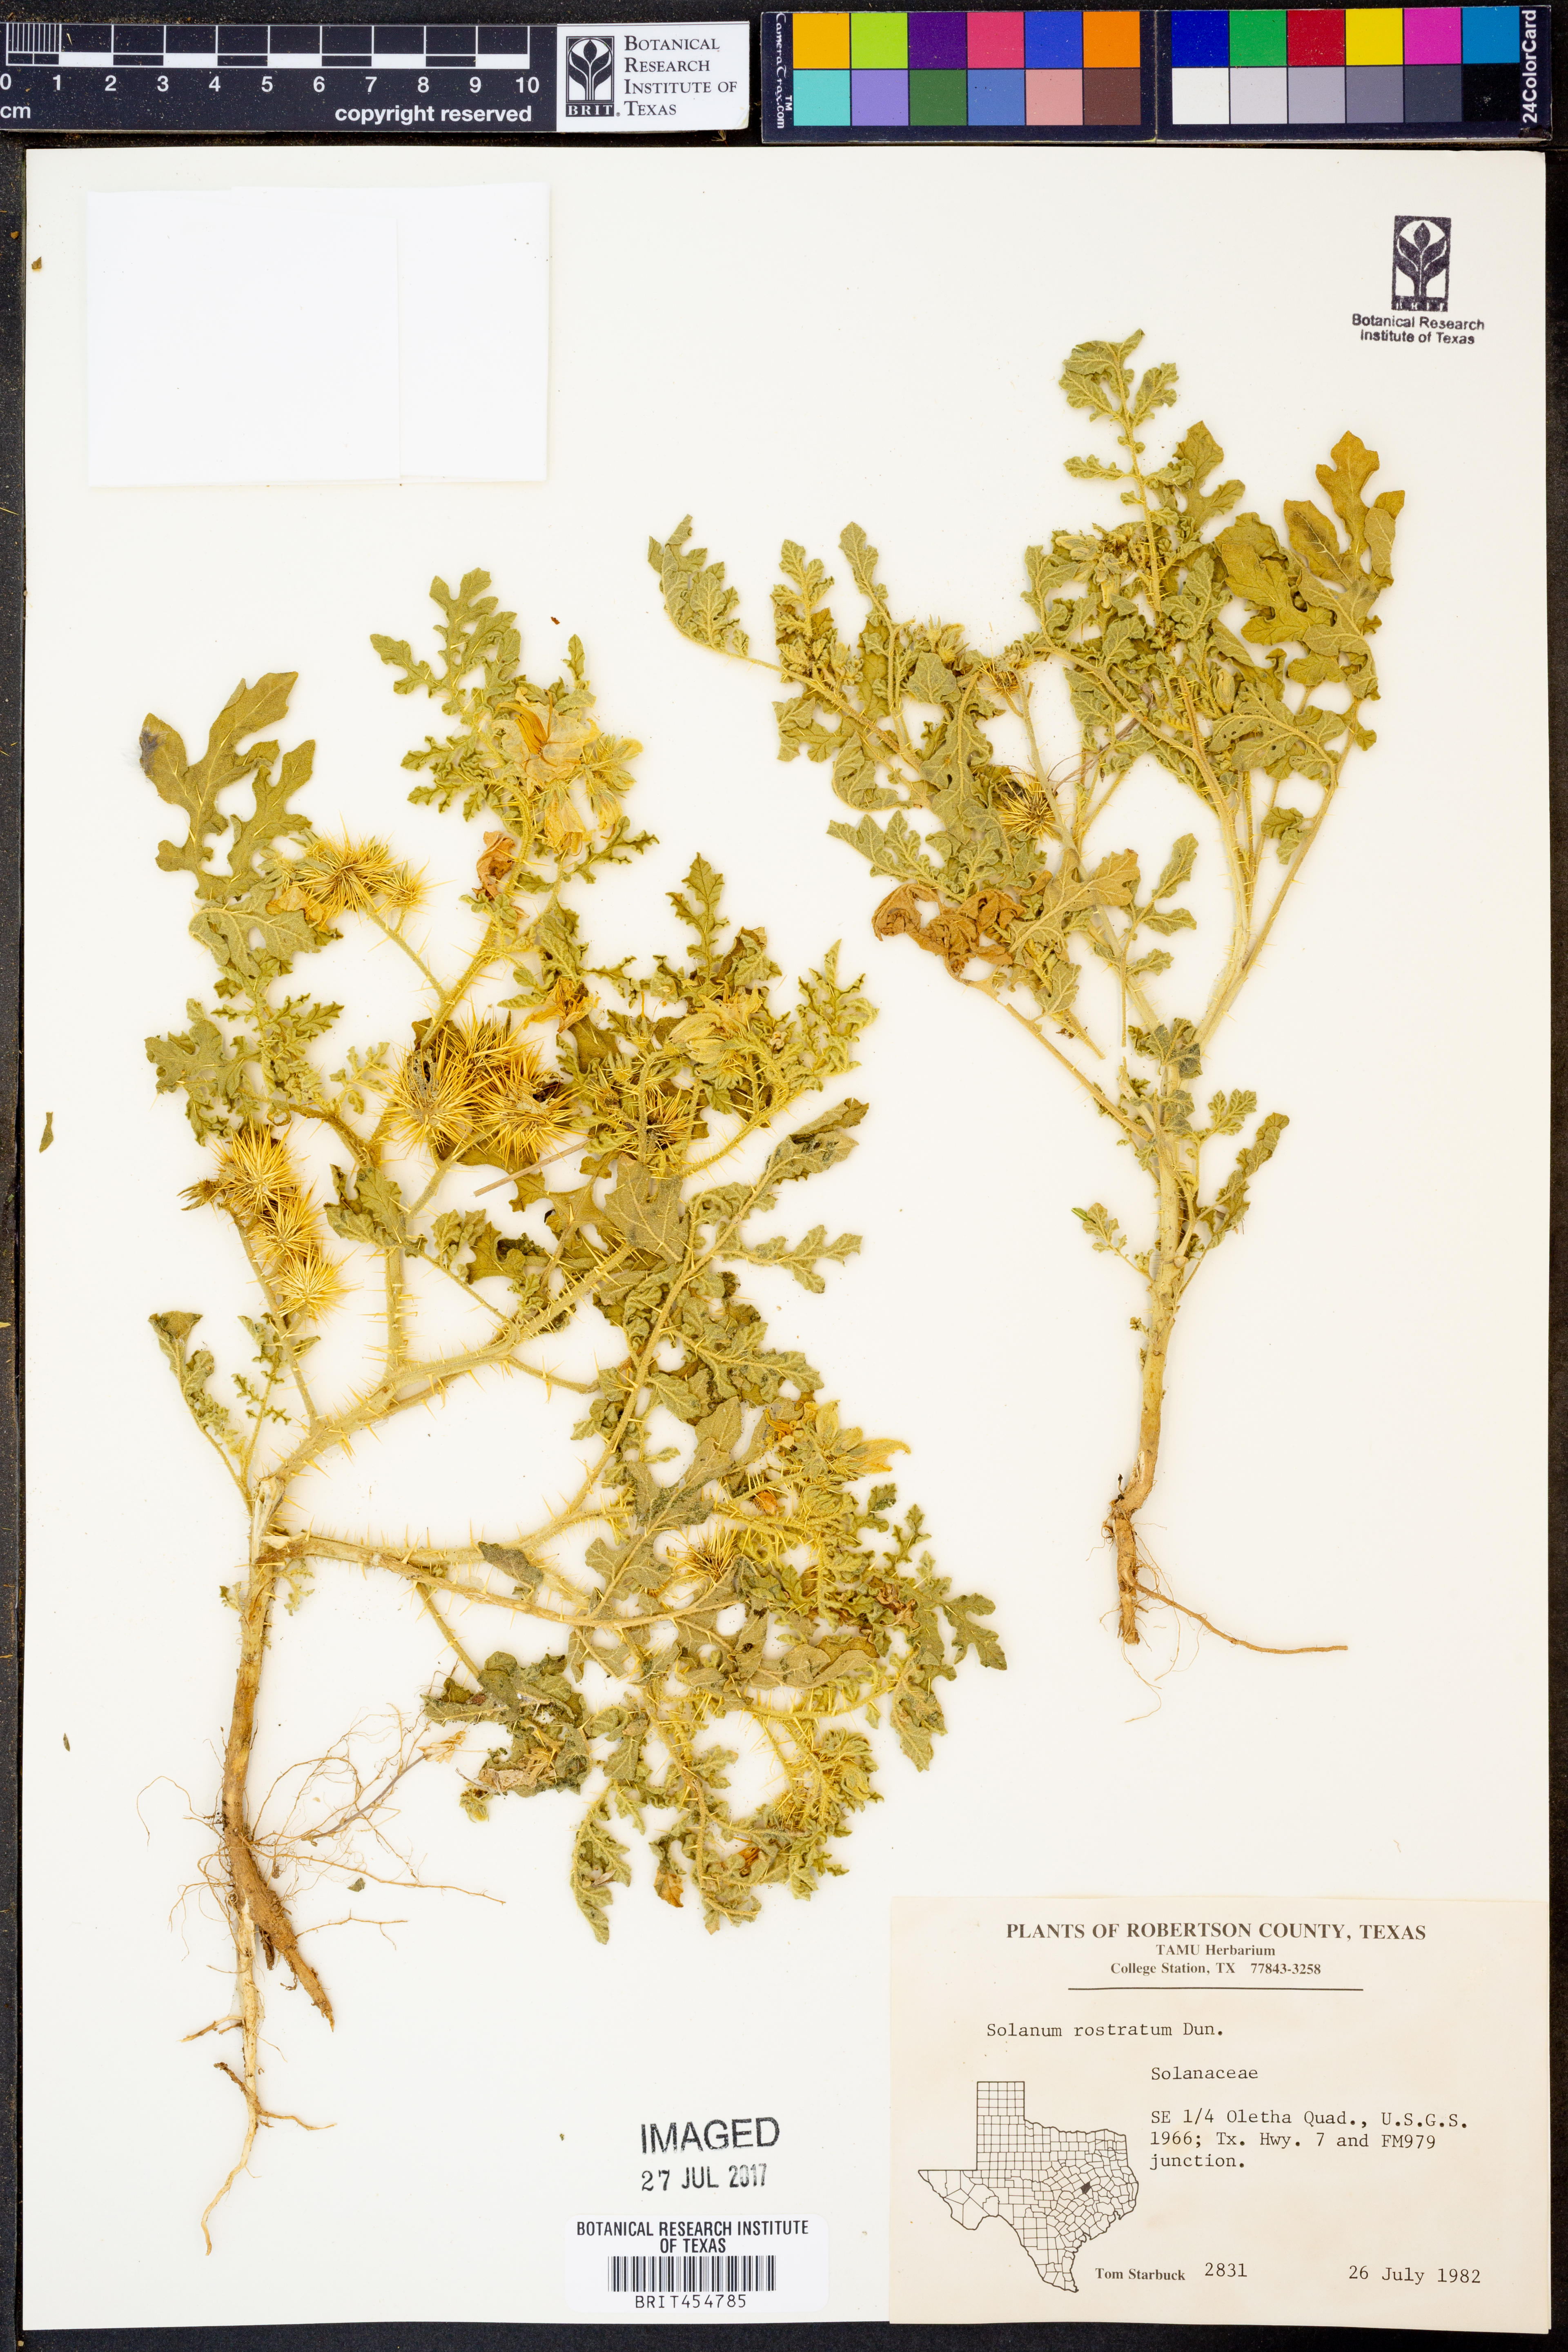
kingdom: Plantae
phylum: Tracheophyta
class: Magnoliopsida
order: Solanales
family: Solanaceae
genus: Solanum
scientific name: Solanum angustifolium
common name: Buffalobur nightshade
